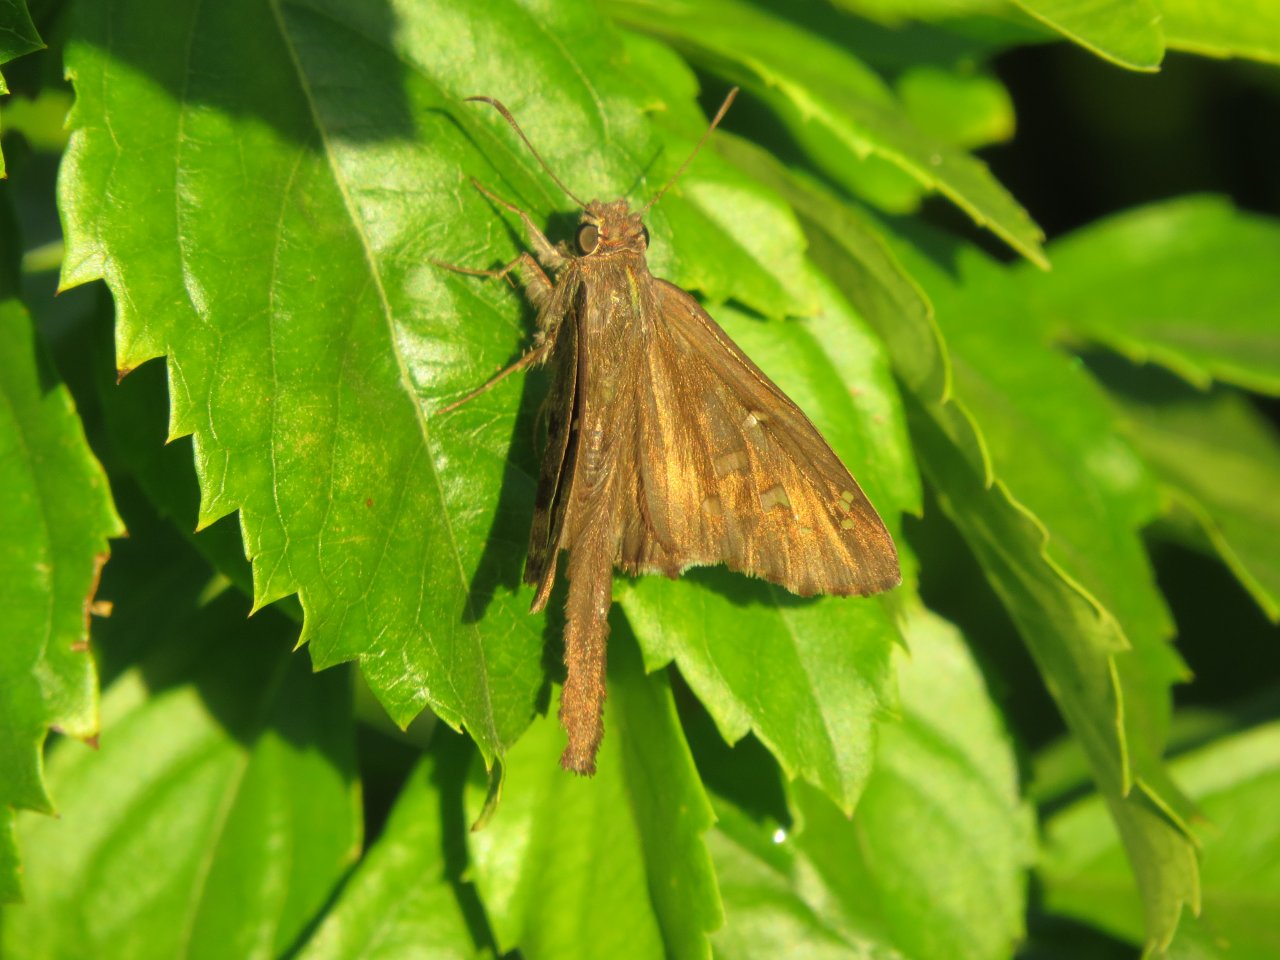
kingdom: Animalia
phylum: Arthropoda
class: Insecta
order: Lepidoptera
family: Hesperiidae
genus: Urbanus
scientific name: Urbanus procne
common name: Brown Longtail
